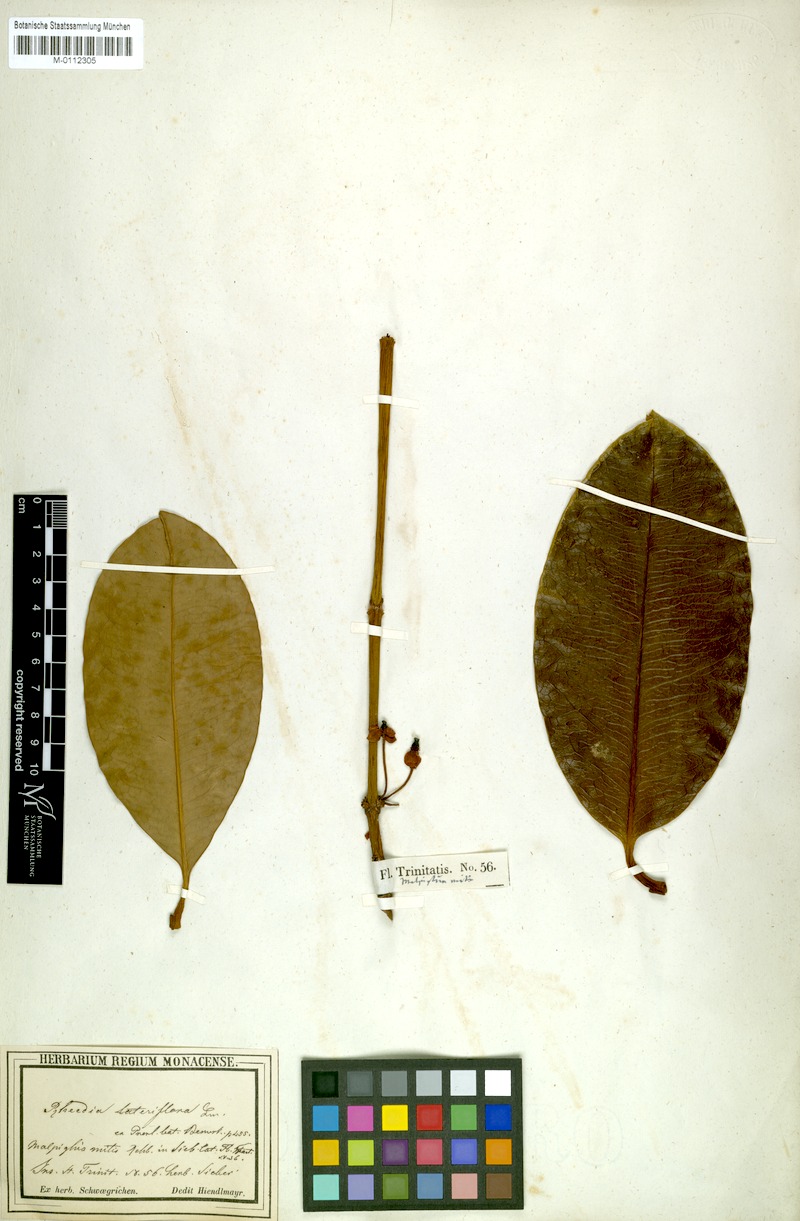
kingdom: Plantae
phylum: Tracheophyta
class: Magnoliopsida
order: Malpighiales
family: Clusiaceae
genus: Garcinia
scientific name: Garcinia humilis
